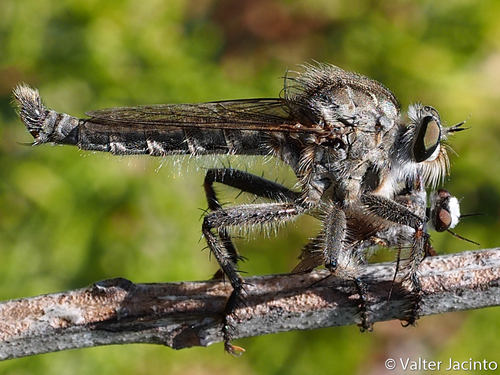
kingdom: Animalia
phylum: Arthropoda
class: Insecta
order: Diptera
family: Asilidae
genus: Machimus
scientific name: Machimus fimbriatus
